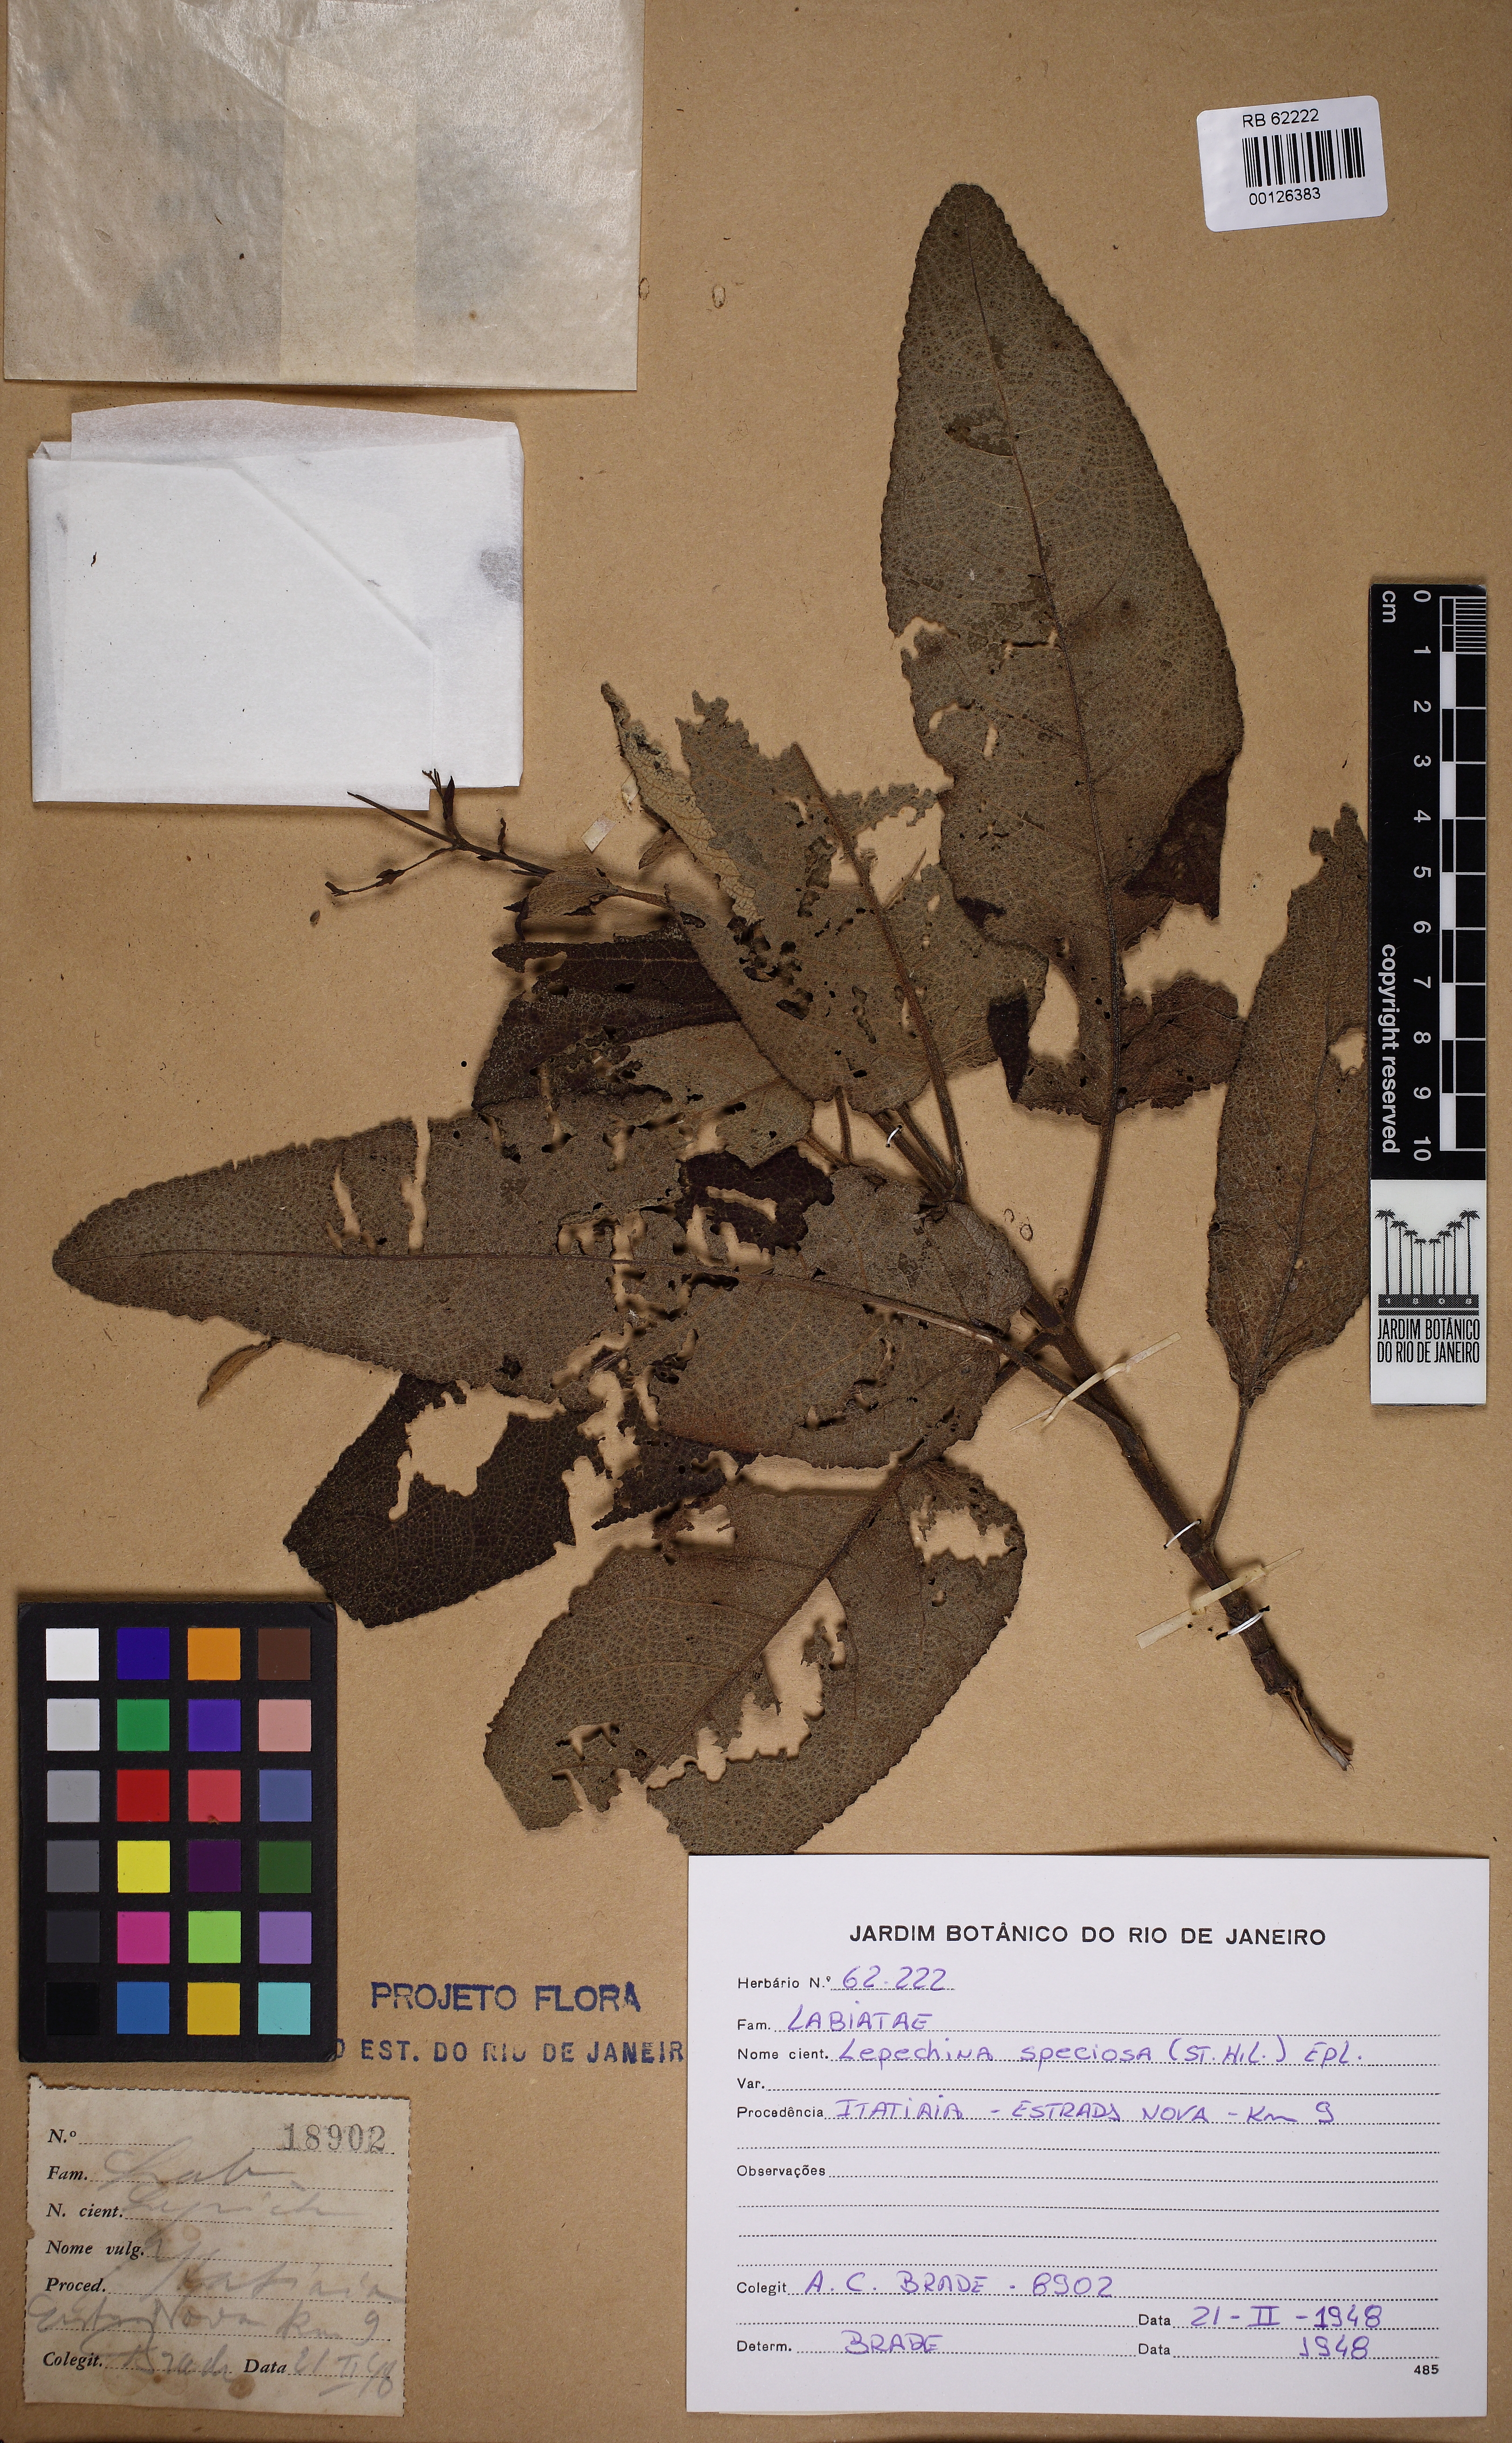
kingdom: Plantae
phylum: Tracheophyta
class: Magnoliopsida
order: Lamiales
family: Lamiaceae
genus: Lepechinia
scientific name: Lepechinia speciosa
